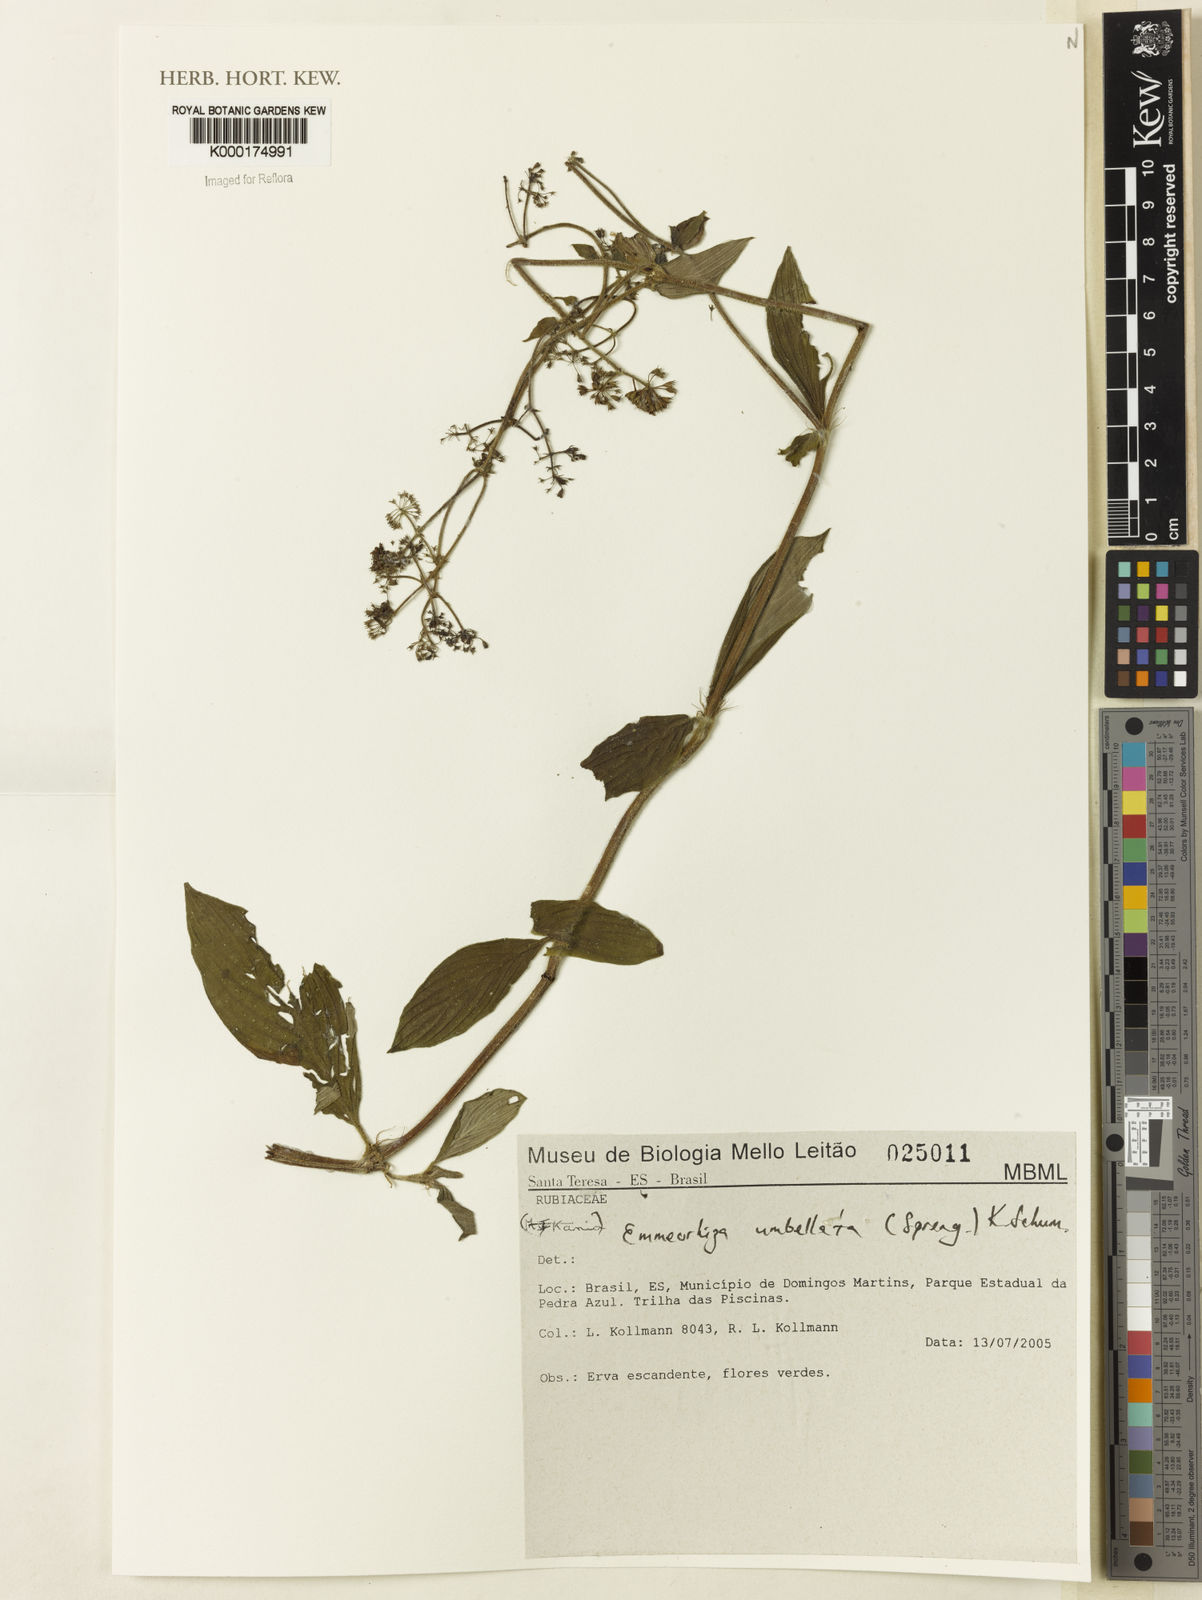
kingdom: Plantae
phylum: Tracheophyta
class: Magnoliopsida
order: Gentianales
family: Rubiaceae
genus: Emmeorhiza
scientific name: Emmeorhiza umbellata
